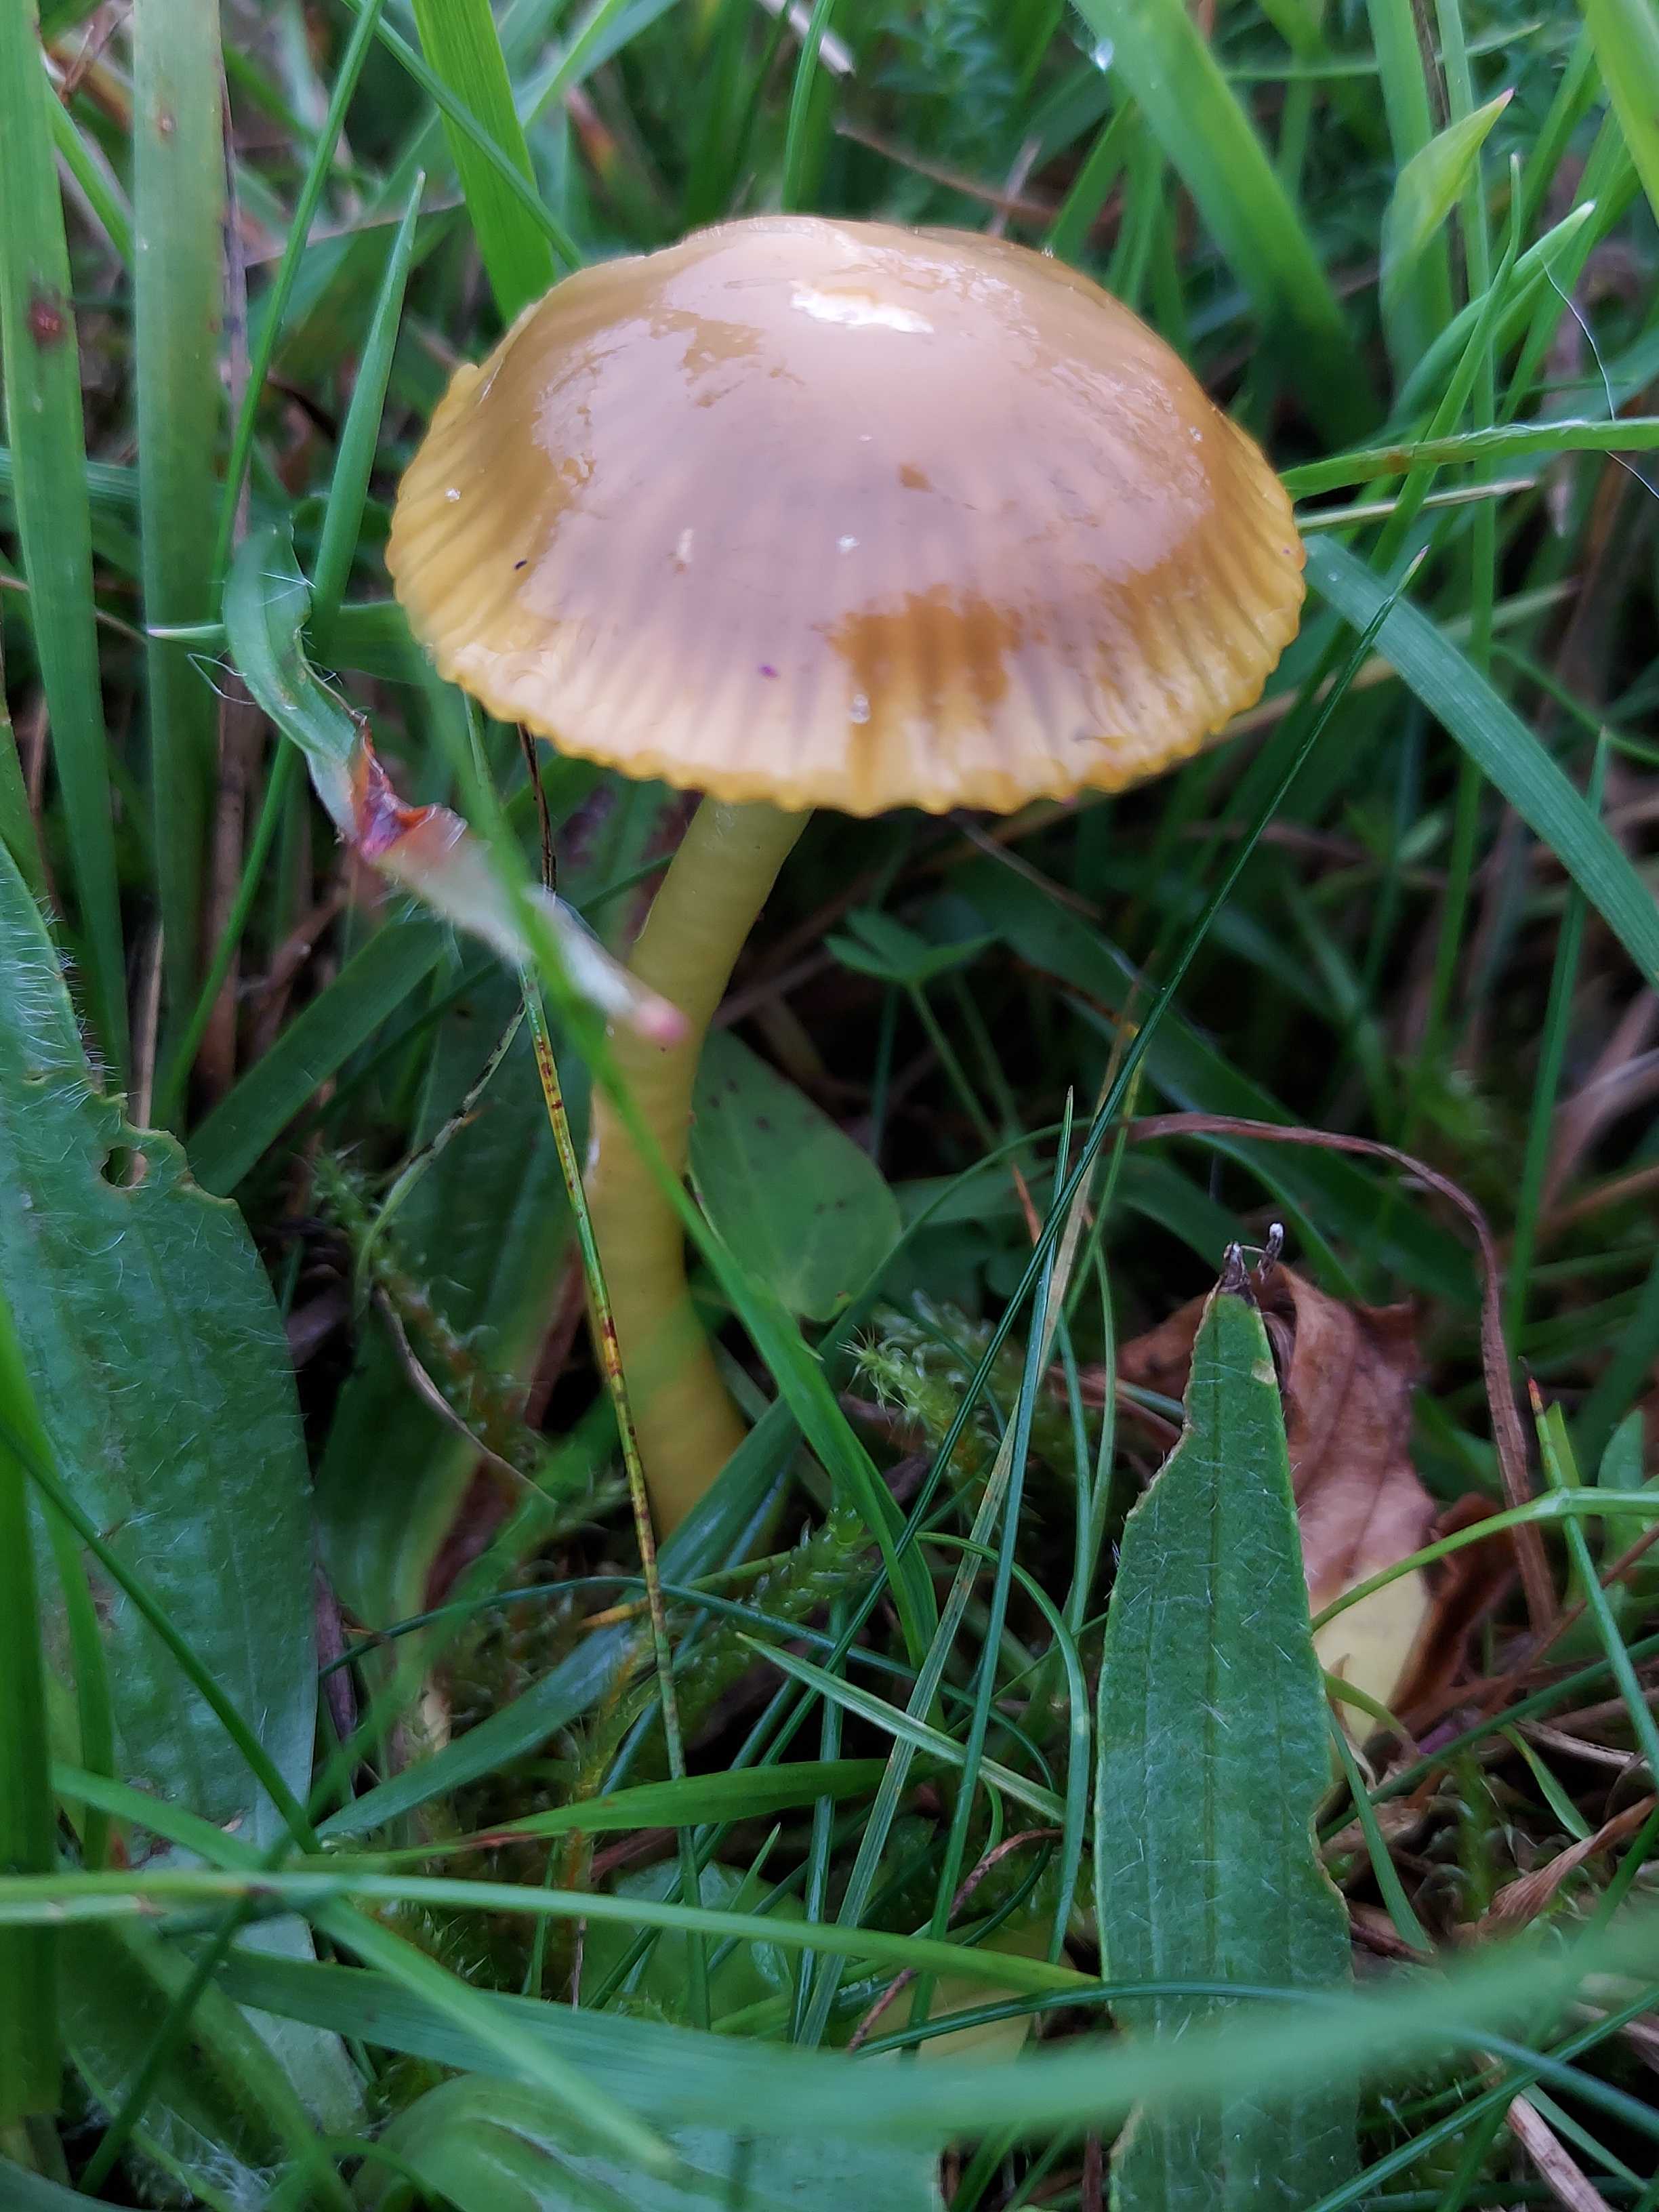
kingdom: Fungi
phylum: Basidiomycota
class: Agaricomycetes
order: Agaricales
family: Hygrophoraceae
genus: Gliophorus
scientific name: Gliophorus psittacinus
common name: papegøje-vokshat
